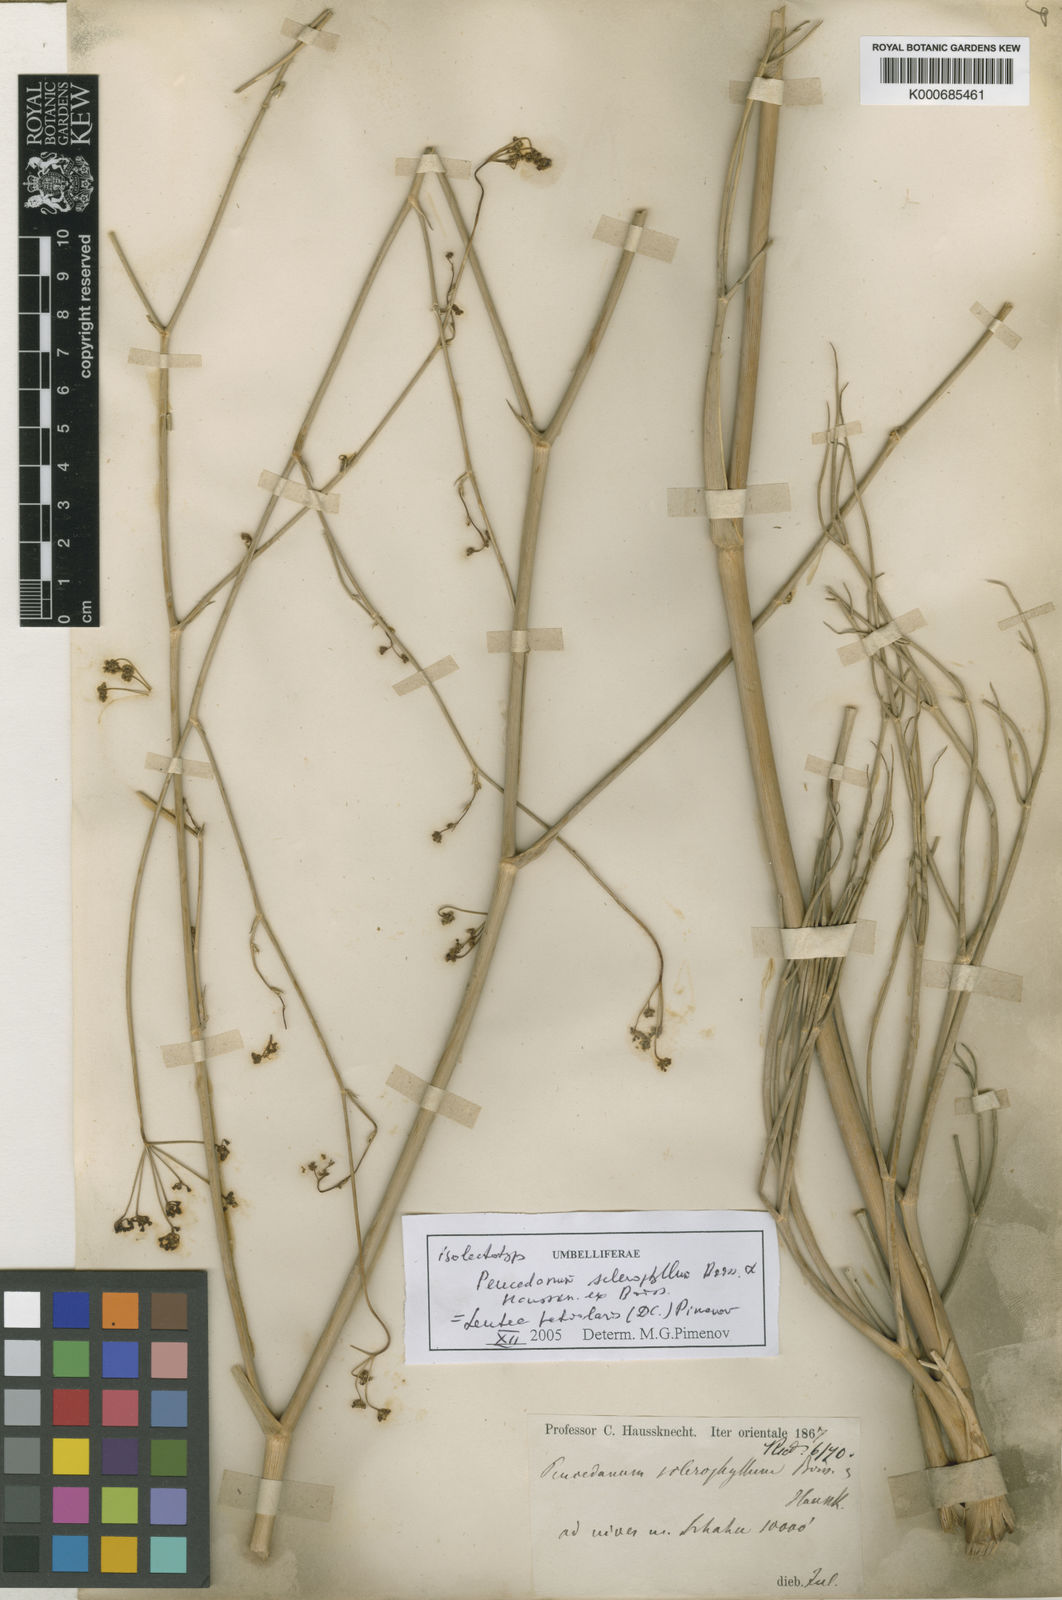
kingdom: Plantae
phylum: Tracheophyta
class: Magnoliopsida
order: Apiales
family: Apiaceae
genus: Leutea
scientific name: Leutea sclerophylla
